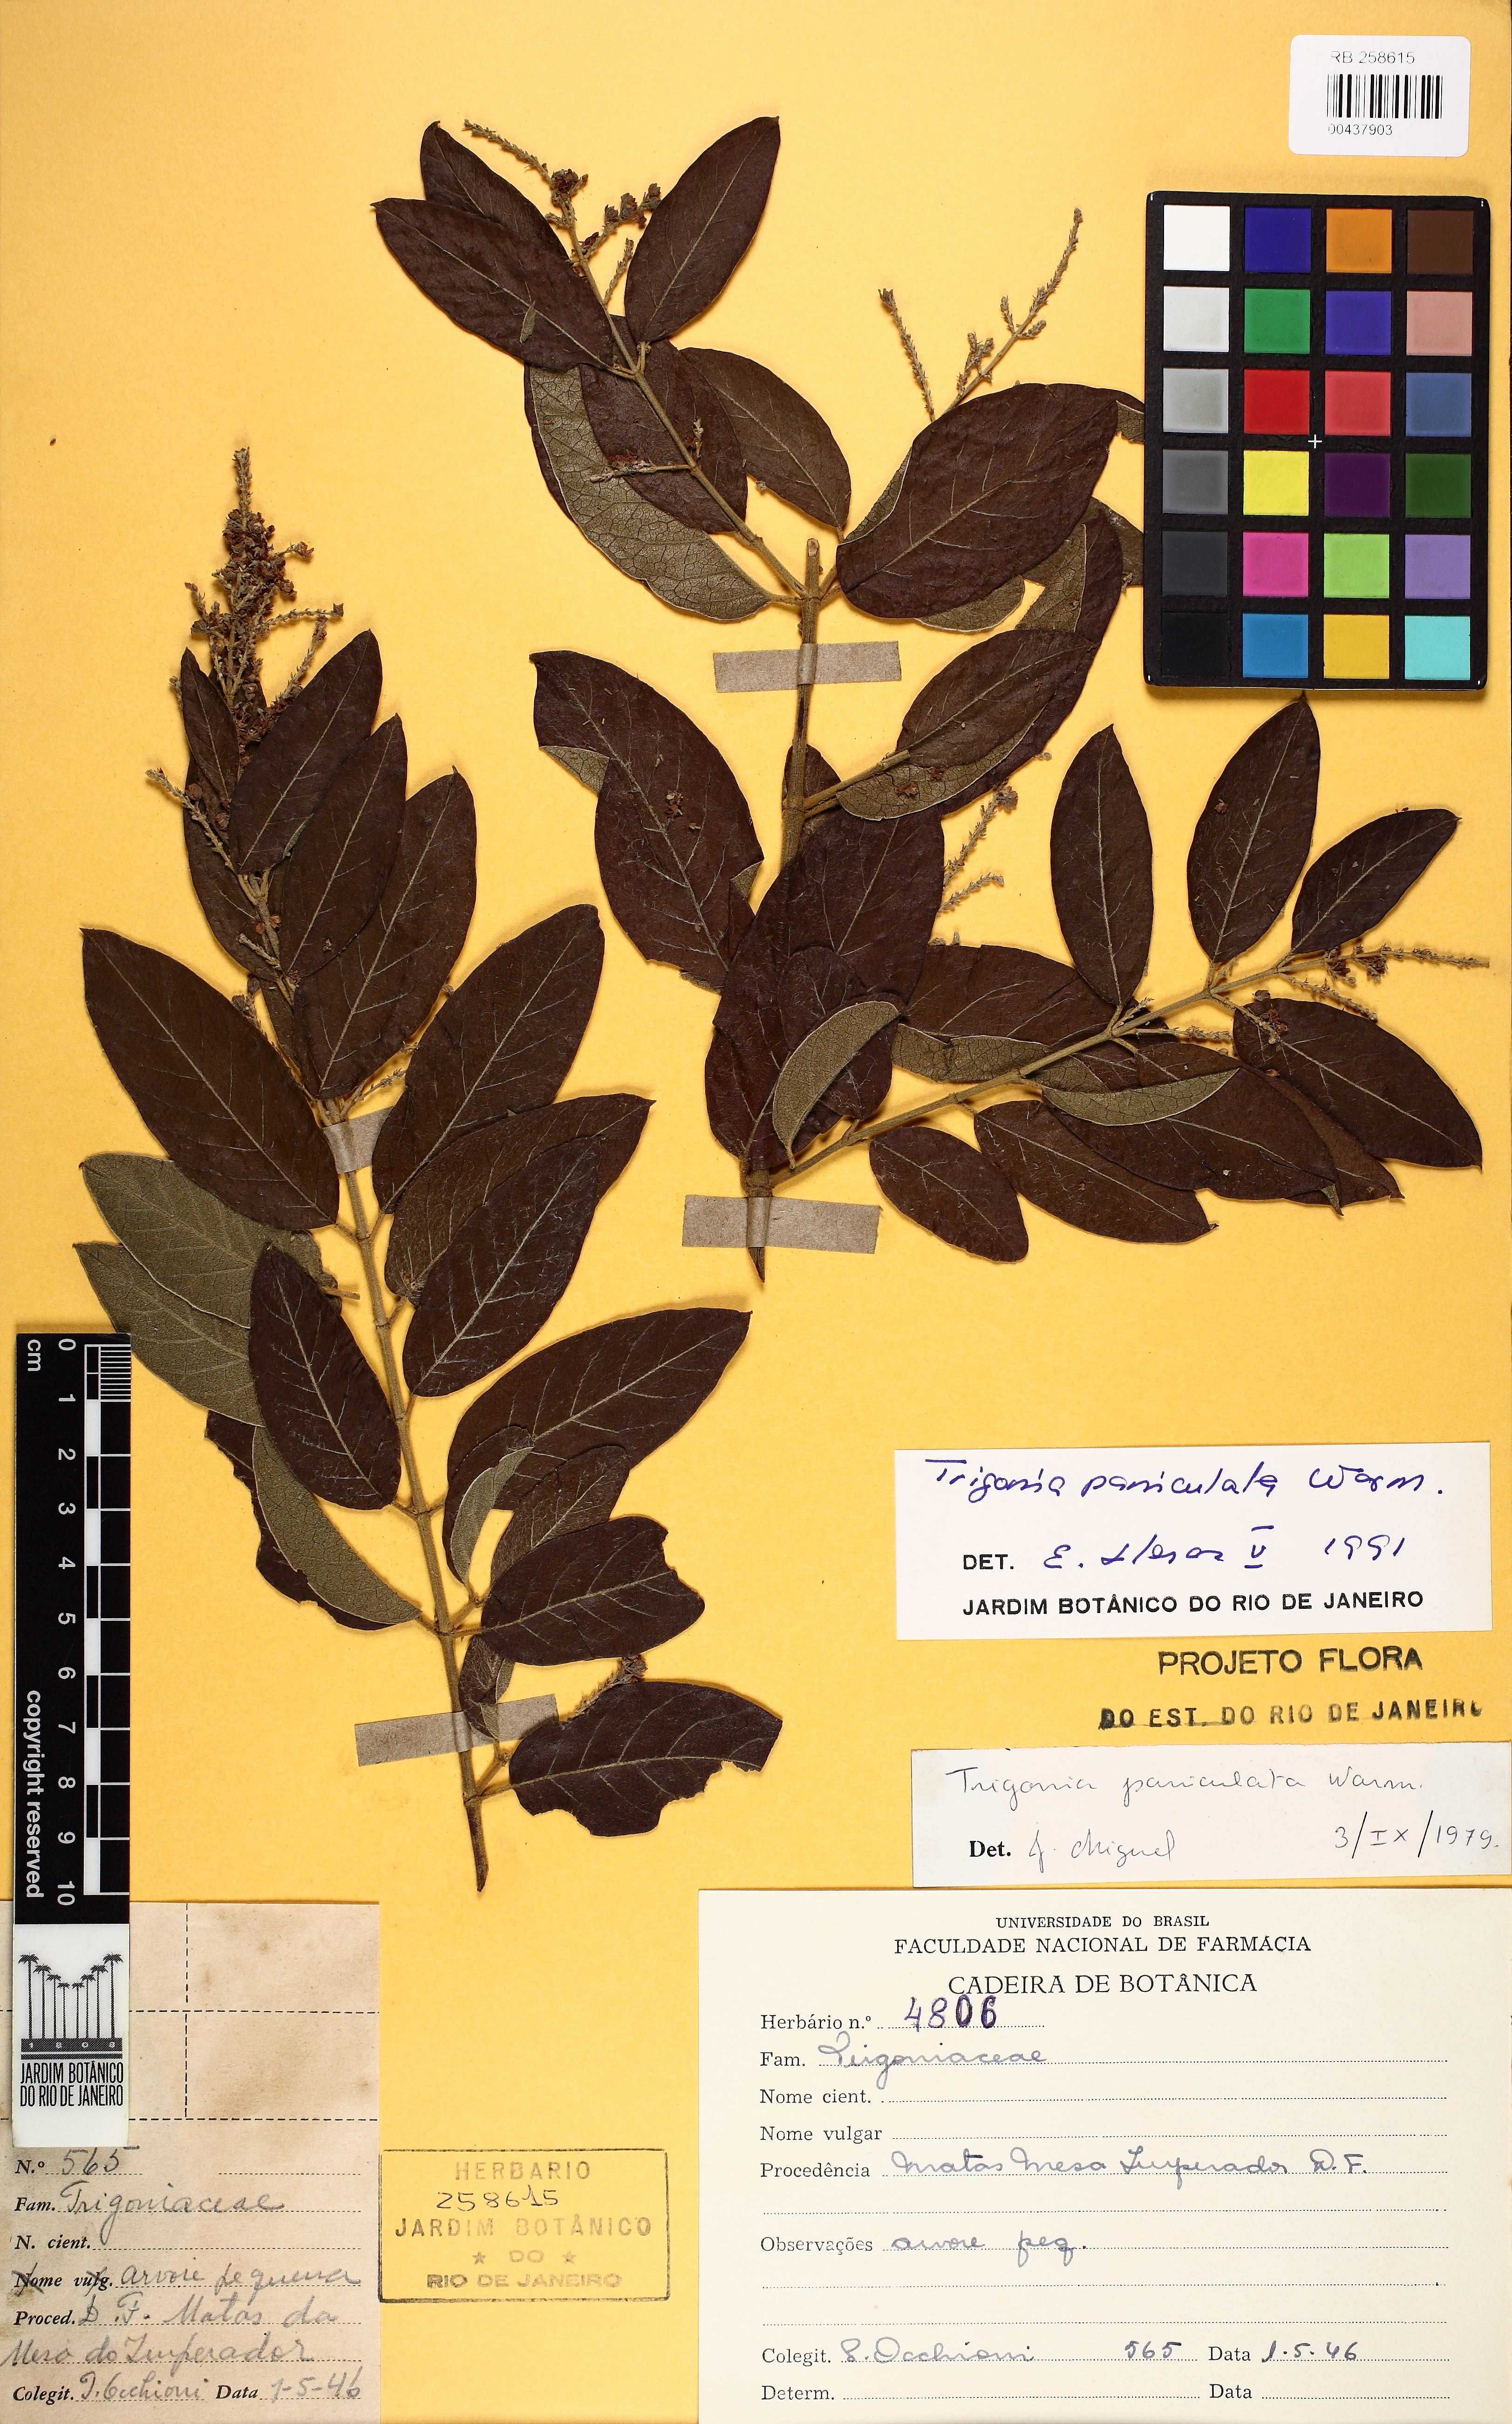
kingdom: Plantae
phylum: Tracheophyta
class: Magnoliopsida
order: Malpighiales
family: Trigoniaceae
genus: Trigonia
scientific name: Trigonia paniculata
